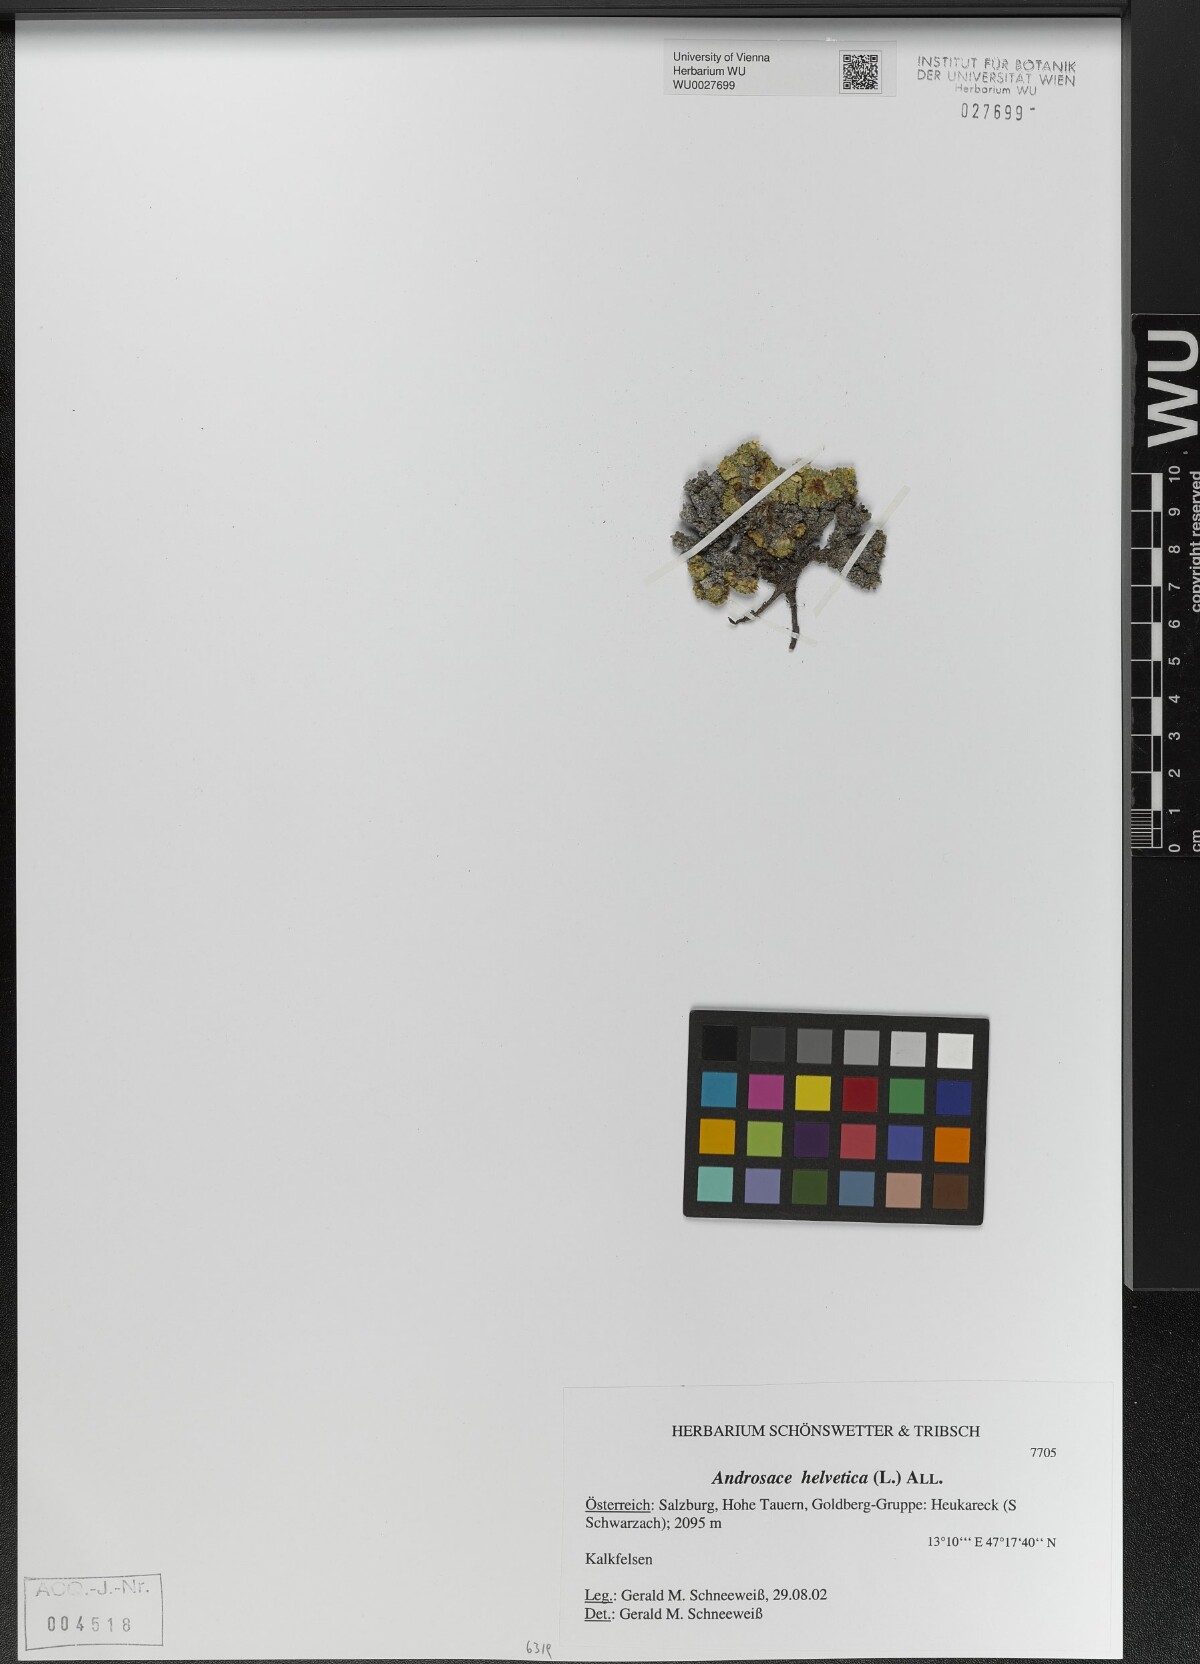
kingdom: Plantae
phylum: Tracheophyta
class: Magnoliopsida
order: Ericales
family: Primulaceae
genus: Androsace
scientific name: Androsace helvetica
